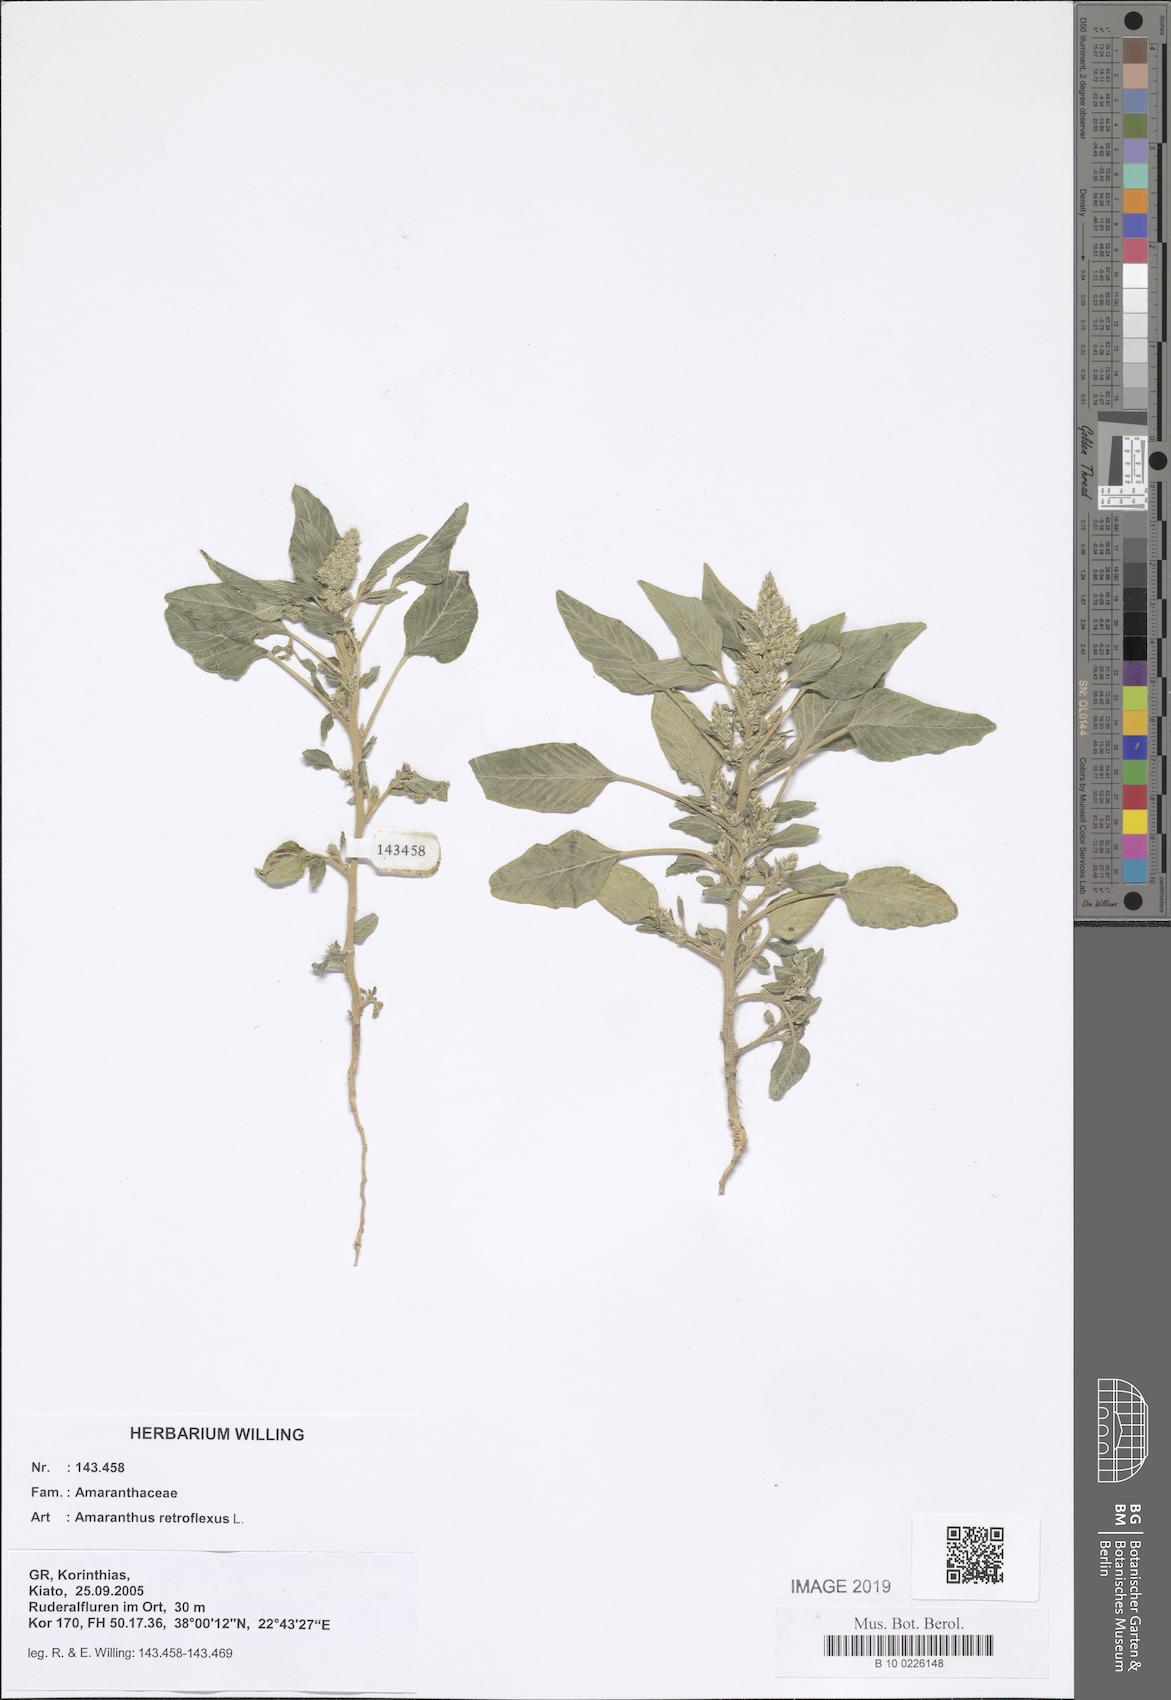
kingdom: Plantae
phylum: Tracheophyta
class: Magnoliopsida
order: Caryophyllales
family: Amaranthaceae
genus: Amaranthus
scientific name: Amaranthus retroflexus
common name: Redroot amaranth
